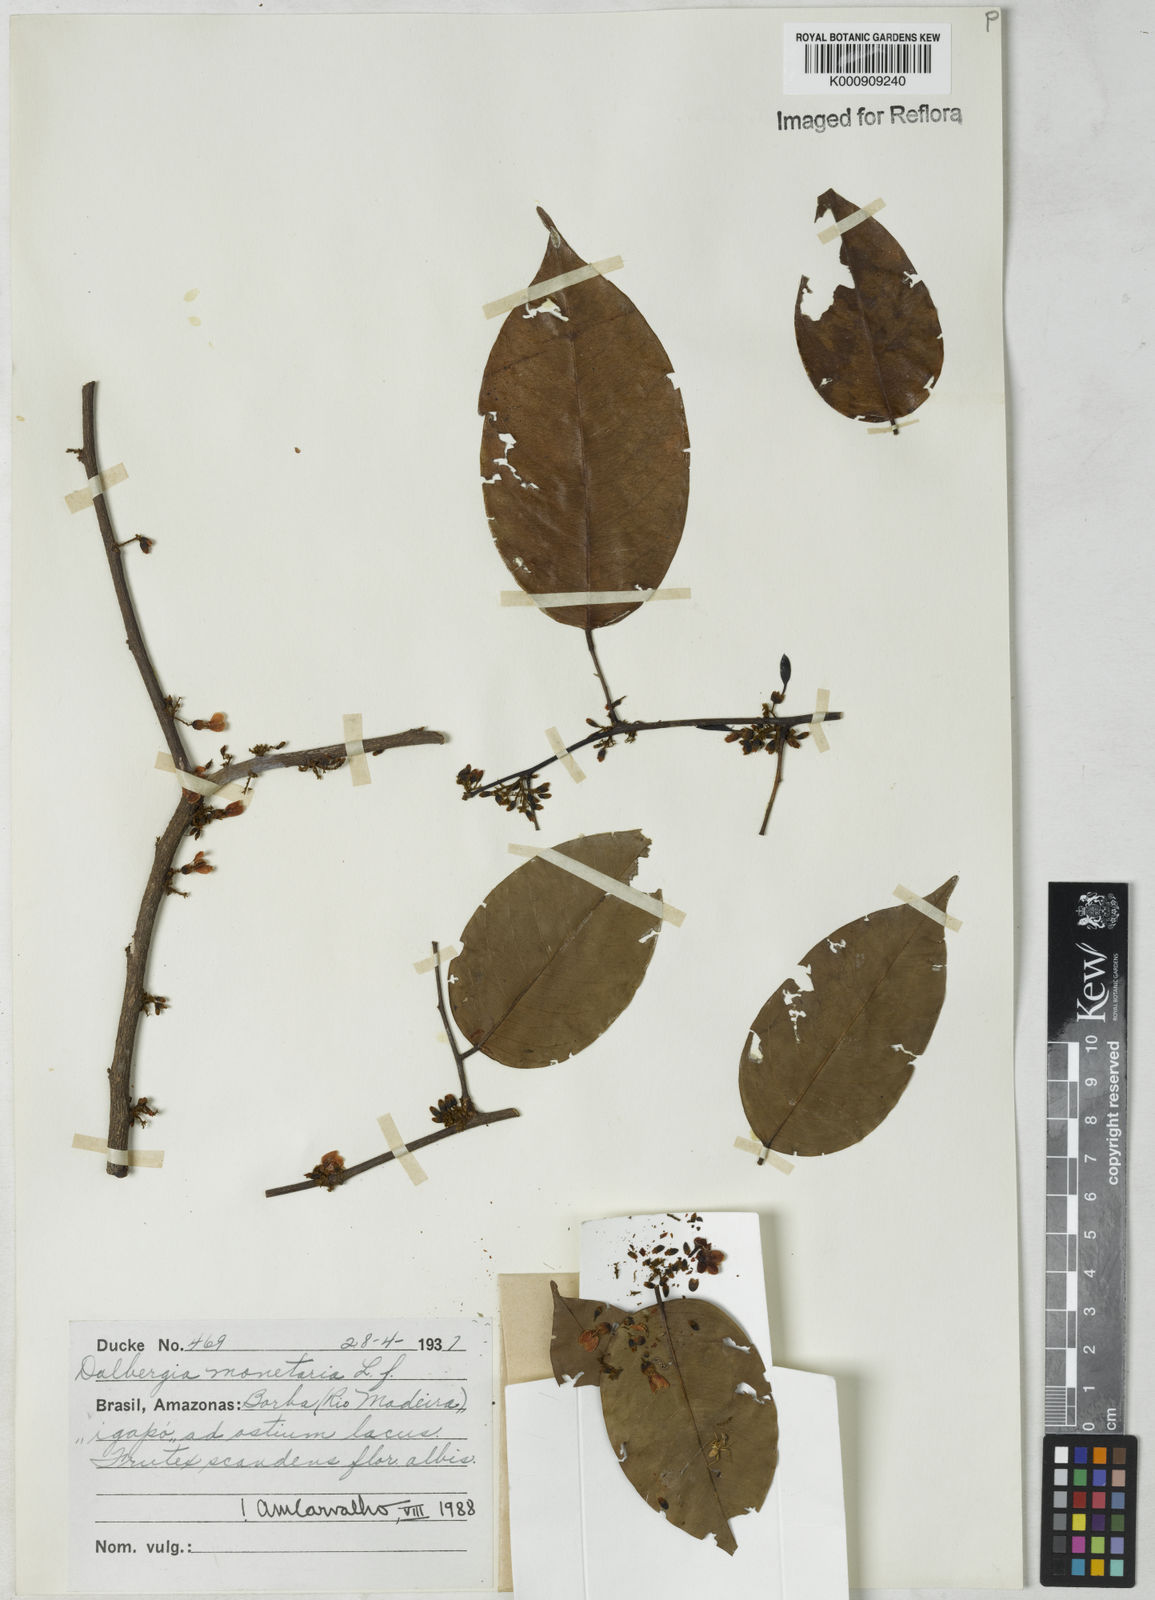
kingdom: Plantae
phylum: Tracheophyta
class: Magnoliopsida
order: Fabales
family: Fabaceae
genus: Dalbergia
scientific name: Dalbergia ovalis
